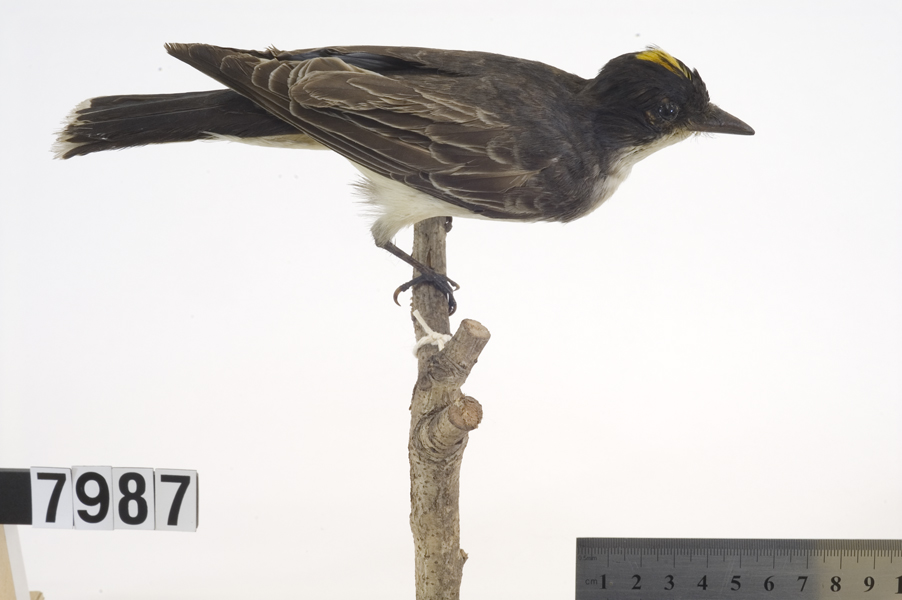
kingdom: Animalia
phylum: Chordata
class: Aves
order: Passeriformes
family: Tyrannidae
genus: Tyrannus
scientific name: Tyrannus tyrannus
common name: Eastern kingbird
